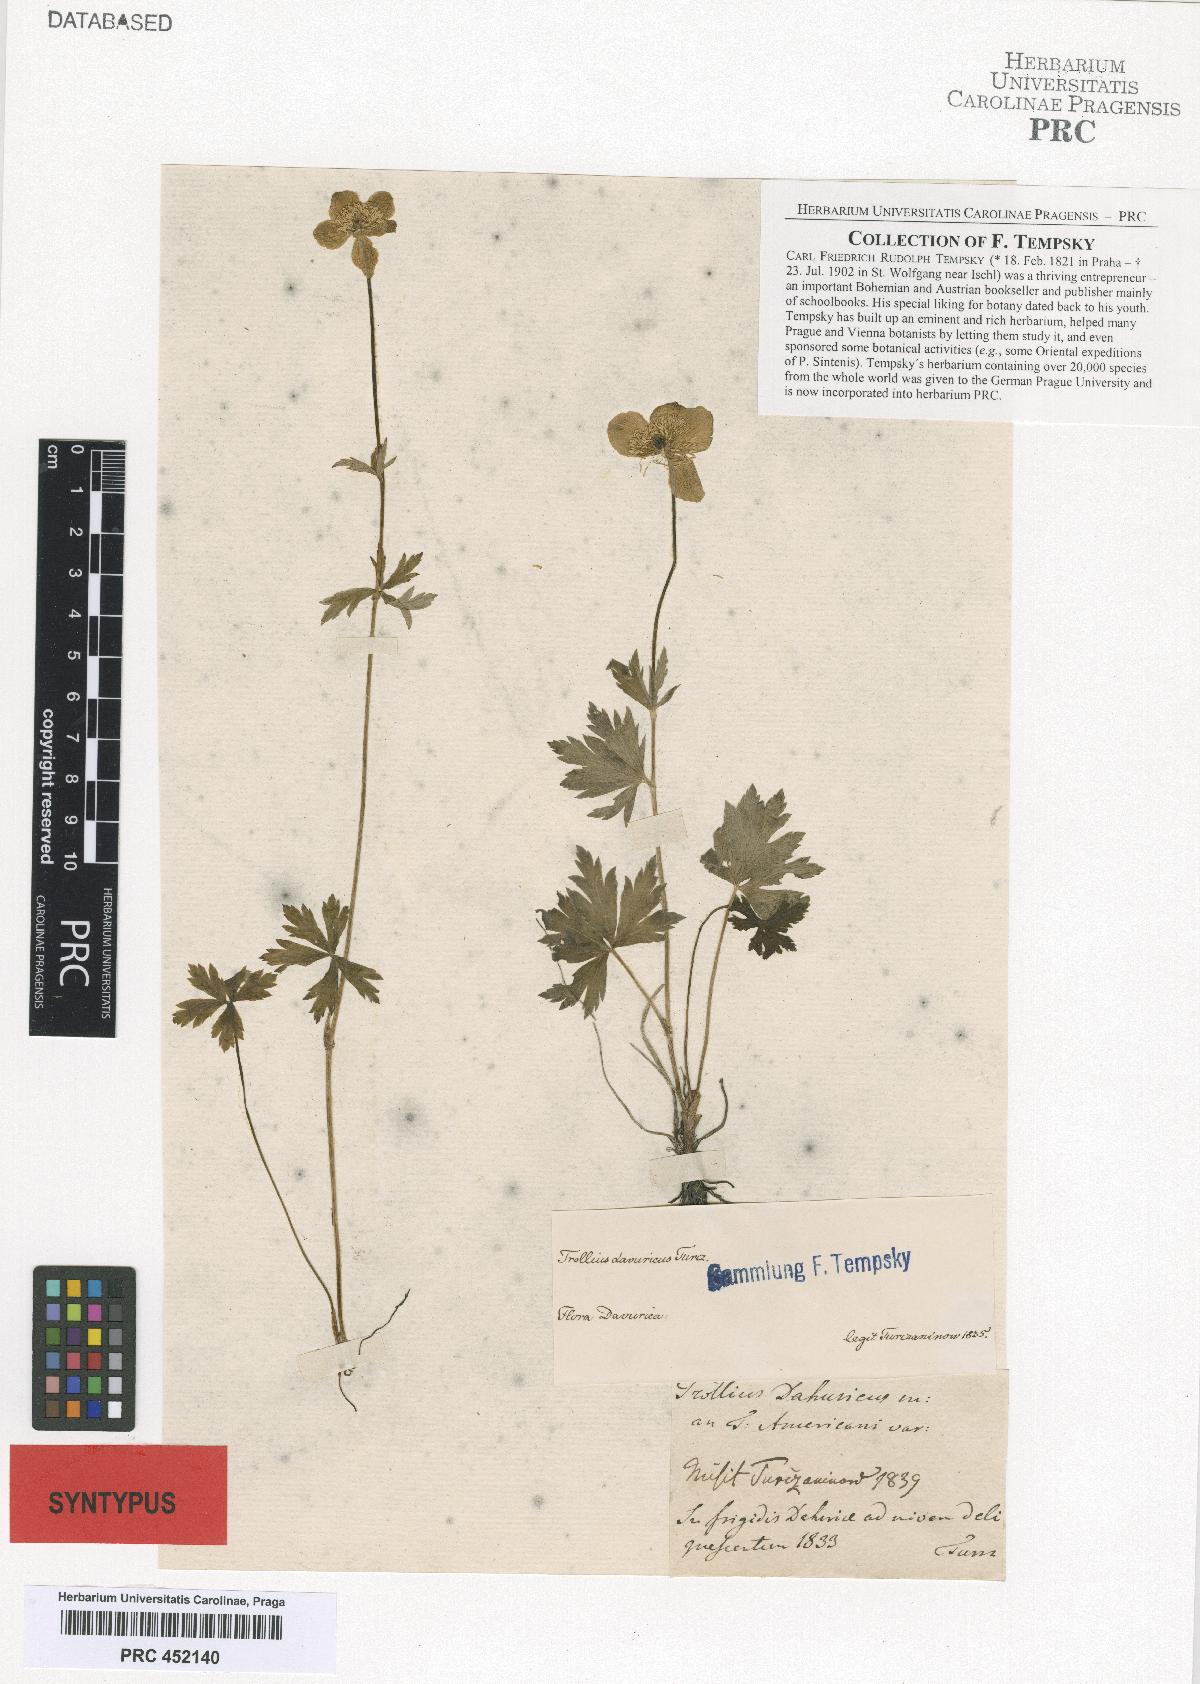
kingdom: Plantae
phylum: Tracheophyta
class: Magnoliopsida
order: Ranunculales
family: Ranunculaceae
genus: Trollius
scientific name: Trollius asiaticus
